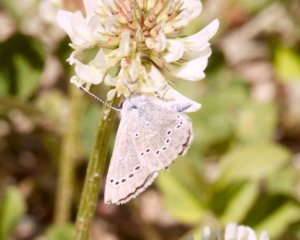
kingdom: Animalia
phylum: Arthropoda
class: Insecta
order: Lepidoptera
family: Lycaenidae
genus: Glaucopsyche
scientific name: Glaucopsyche lygdamus
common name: Silvery Blue
